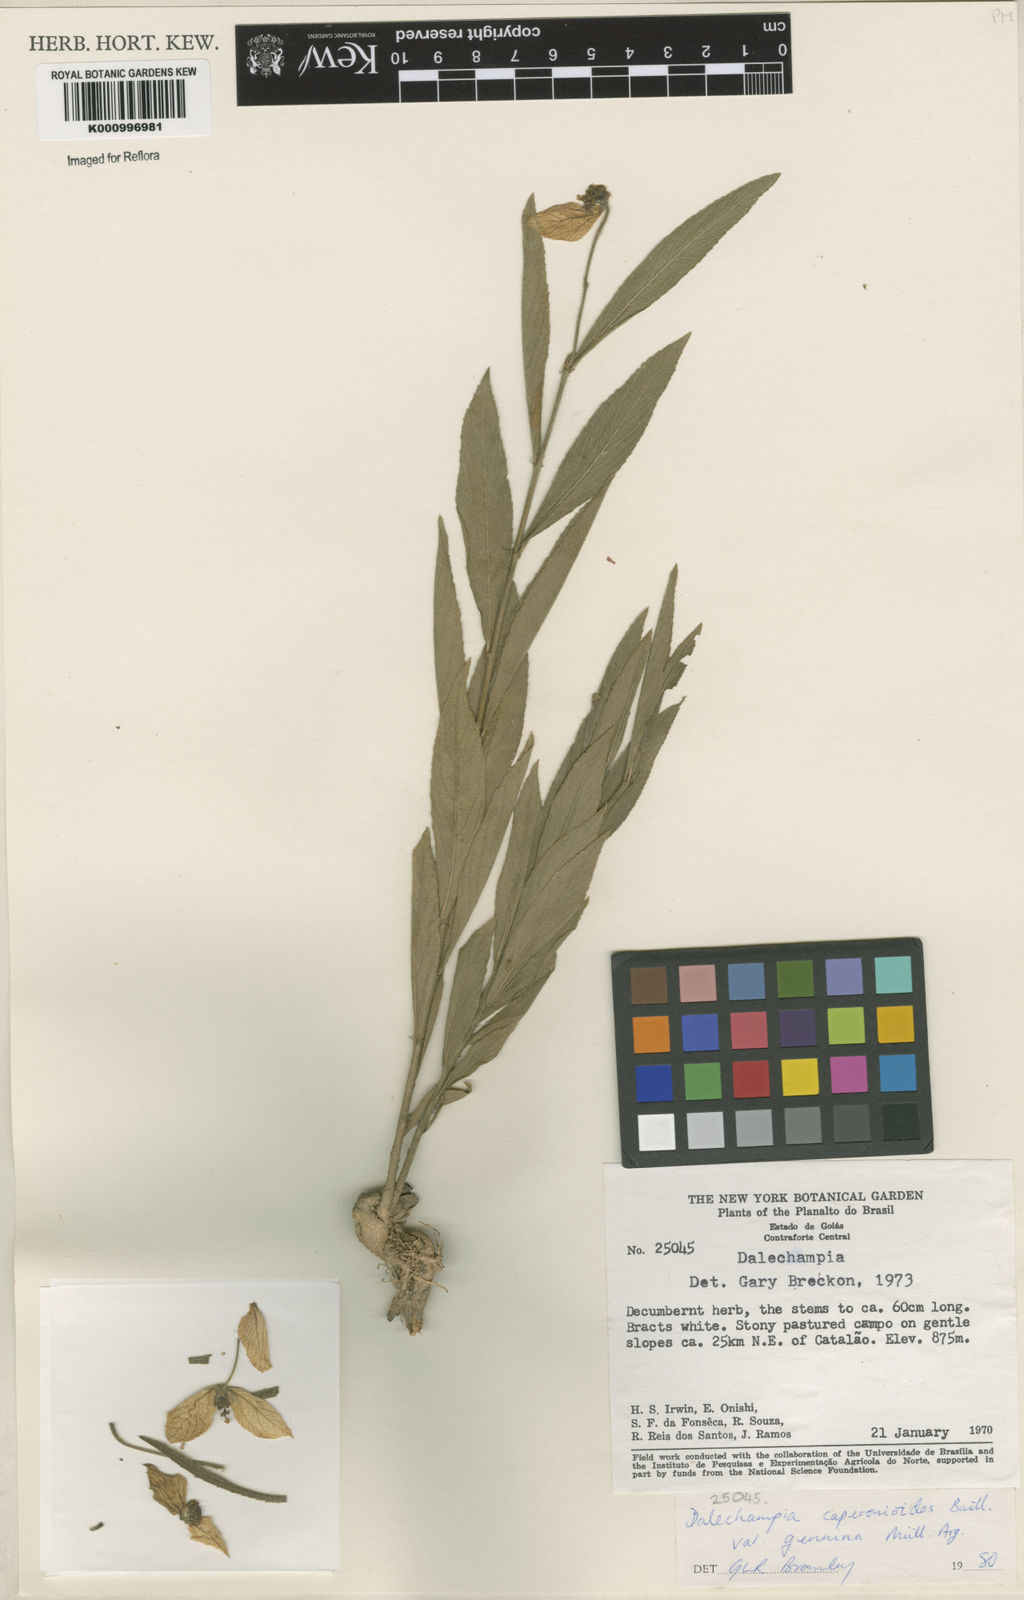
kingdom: Plantae
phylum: Tracheophyta
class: Magnoliopsida
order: Malpighiales
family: Euphorbiaceae
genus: Dalechampia
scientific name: Dalechampia caperonioides
